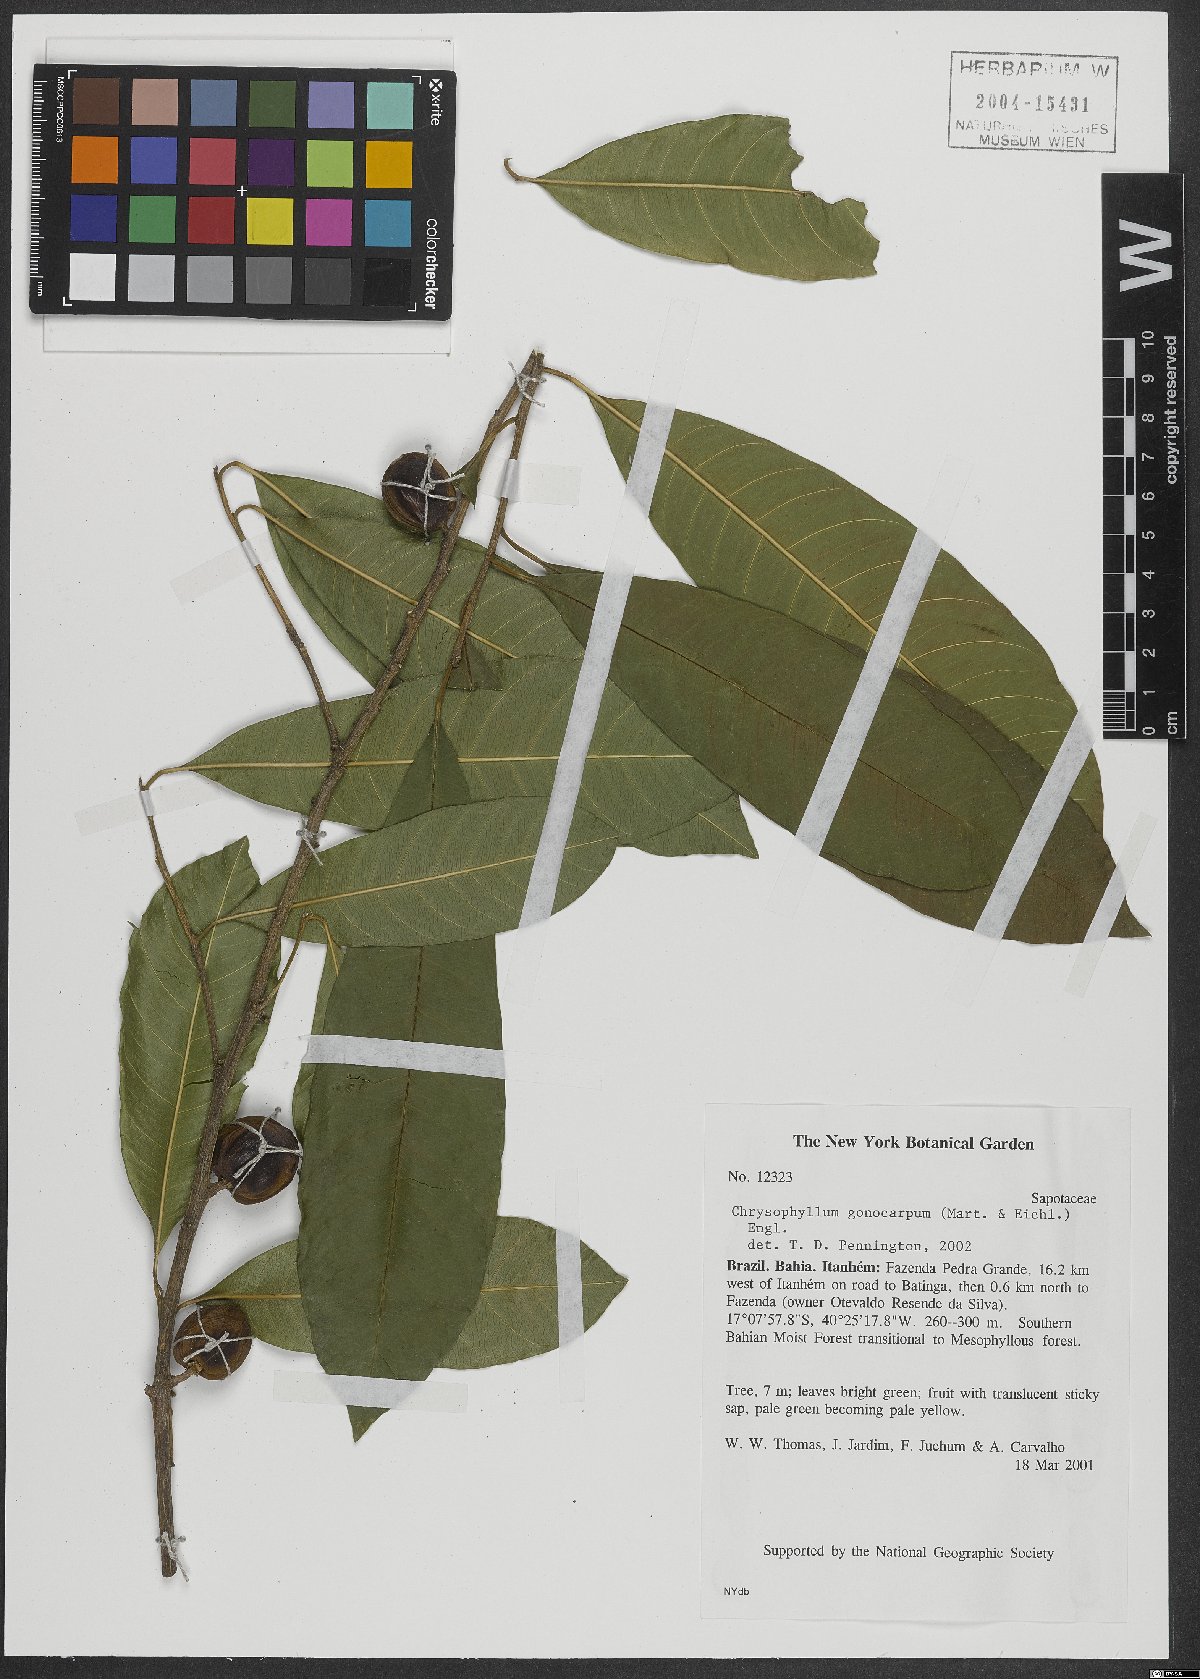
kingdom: Plantae
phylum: Tracheophyta
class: Magnoliopsida
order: Ericales
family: Sapotaceae
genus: Chrysophyllum
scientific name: Chrysophyllum gonocarpum
